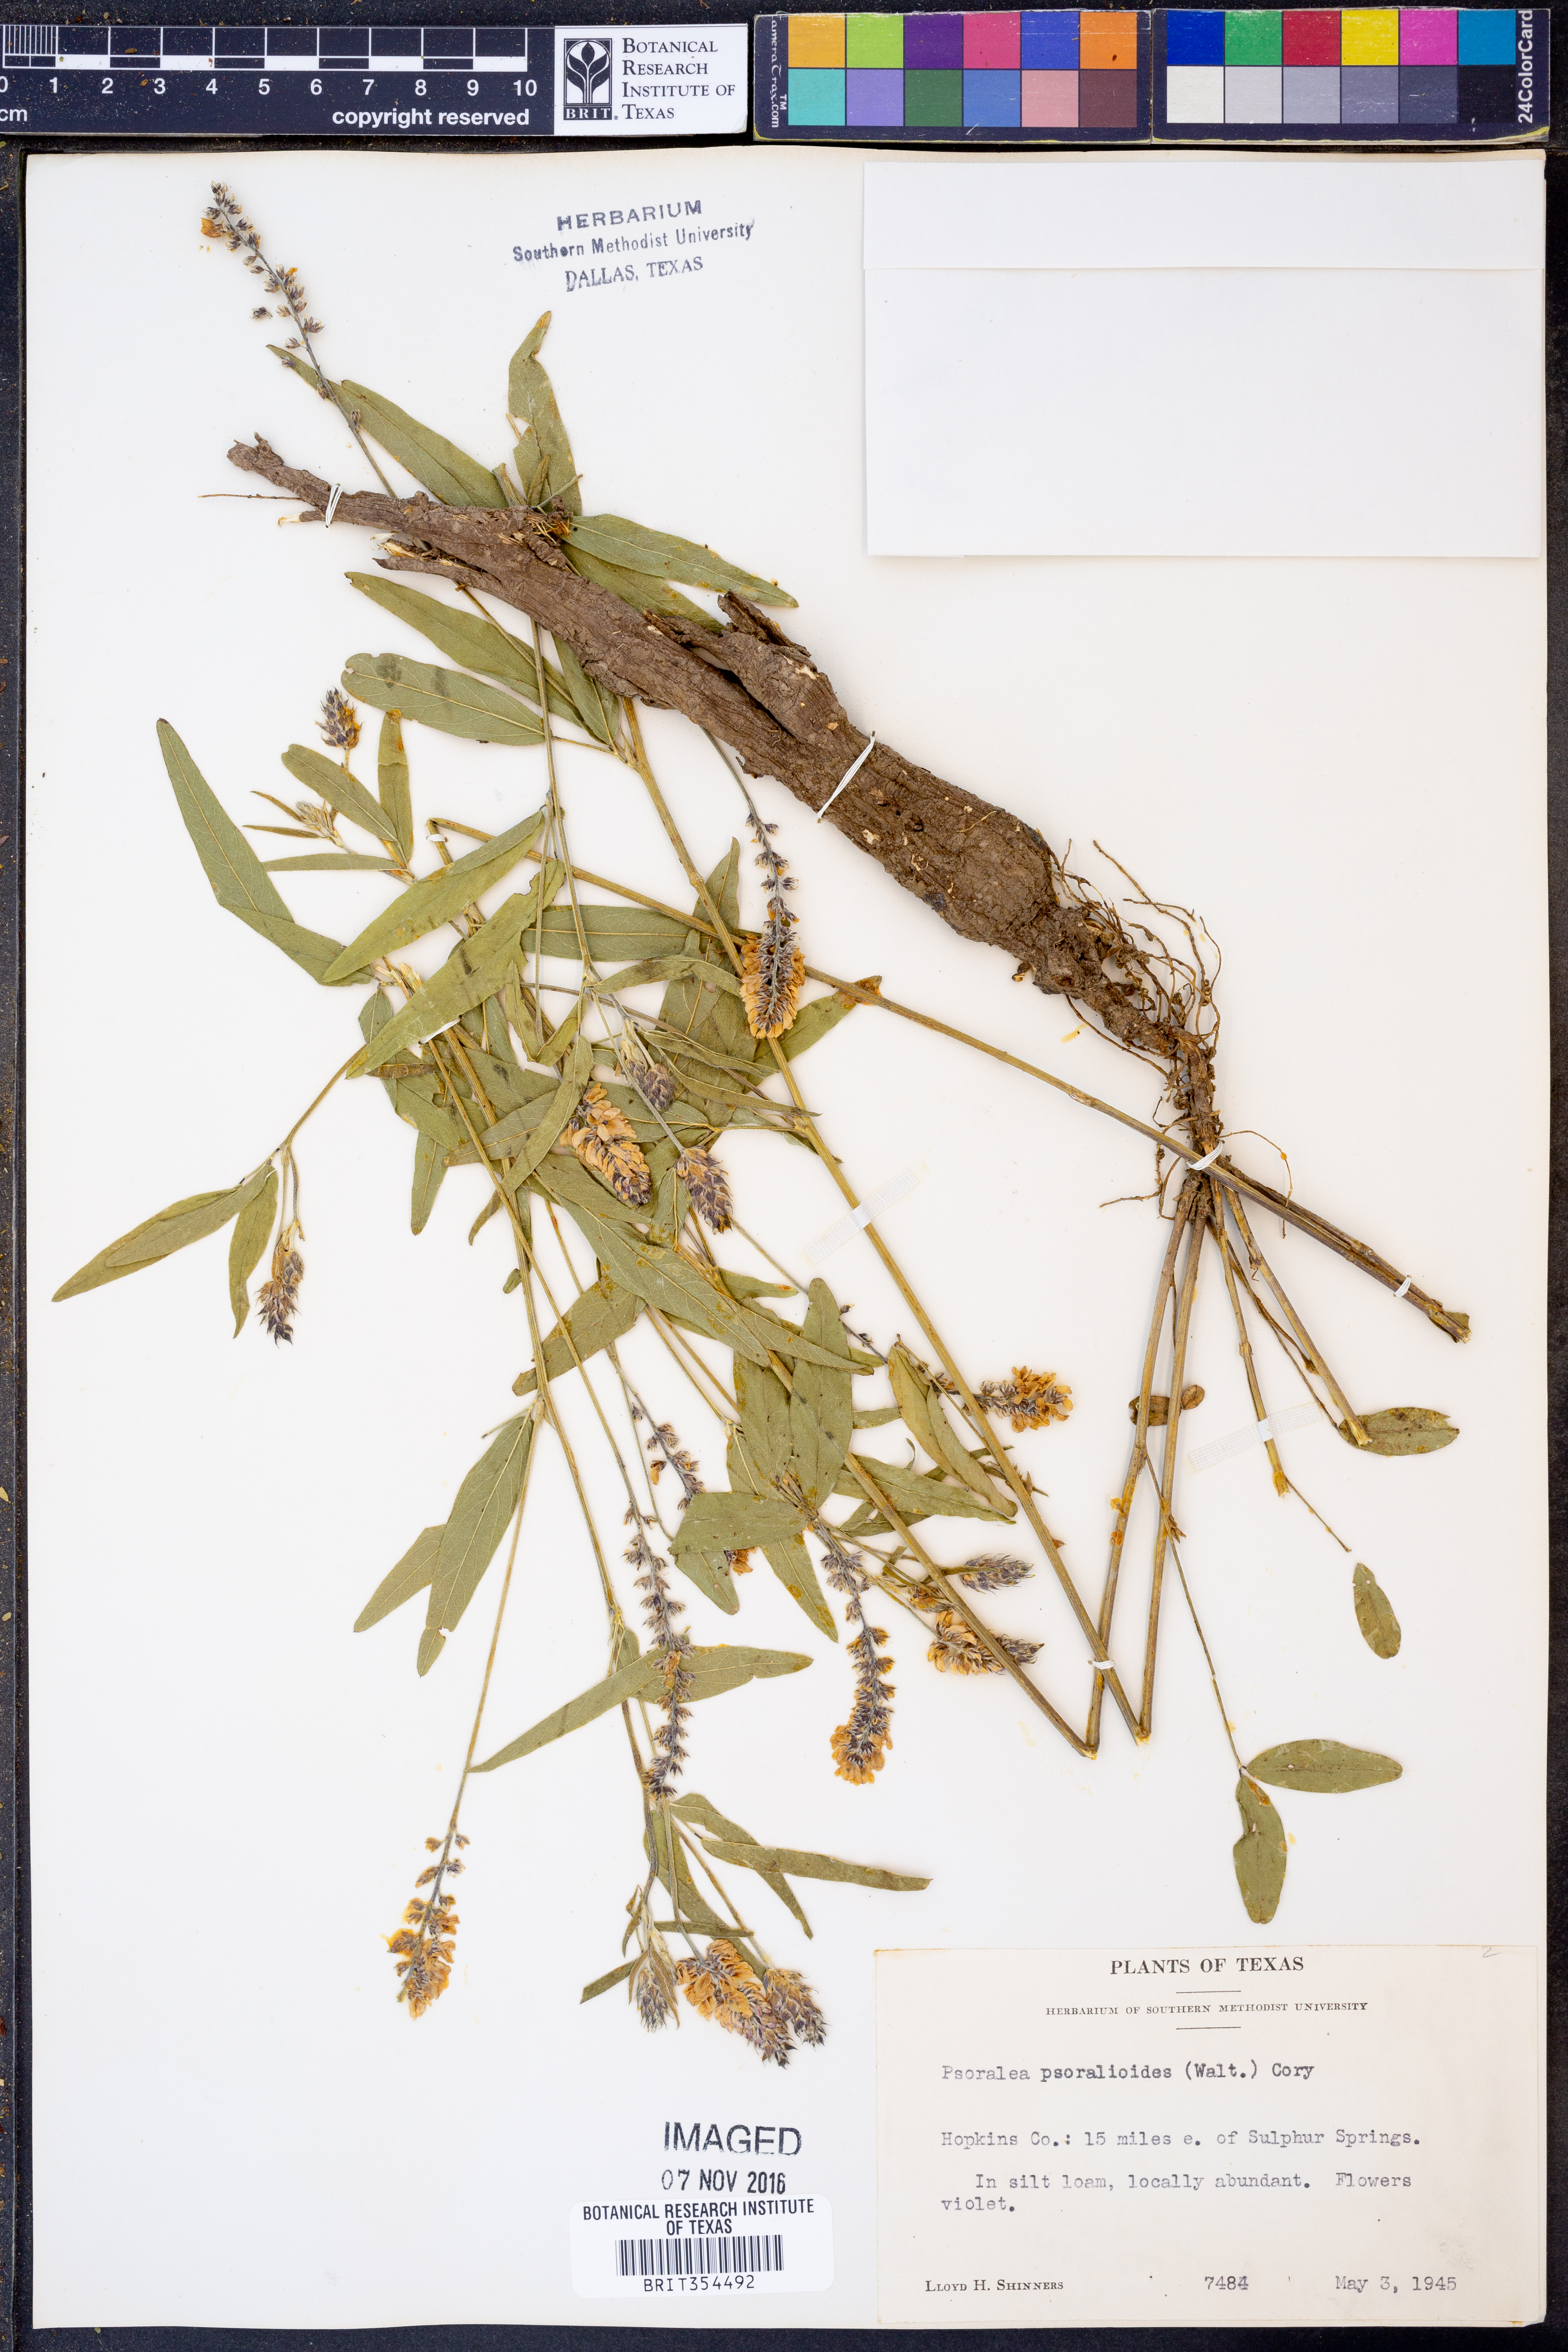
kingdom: Plantae
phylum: Tracheophyta
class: Magnoliopsida
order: Fabales
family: Fabaceae
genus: Orbexilum
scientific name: Orbexilum psoralioides
